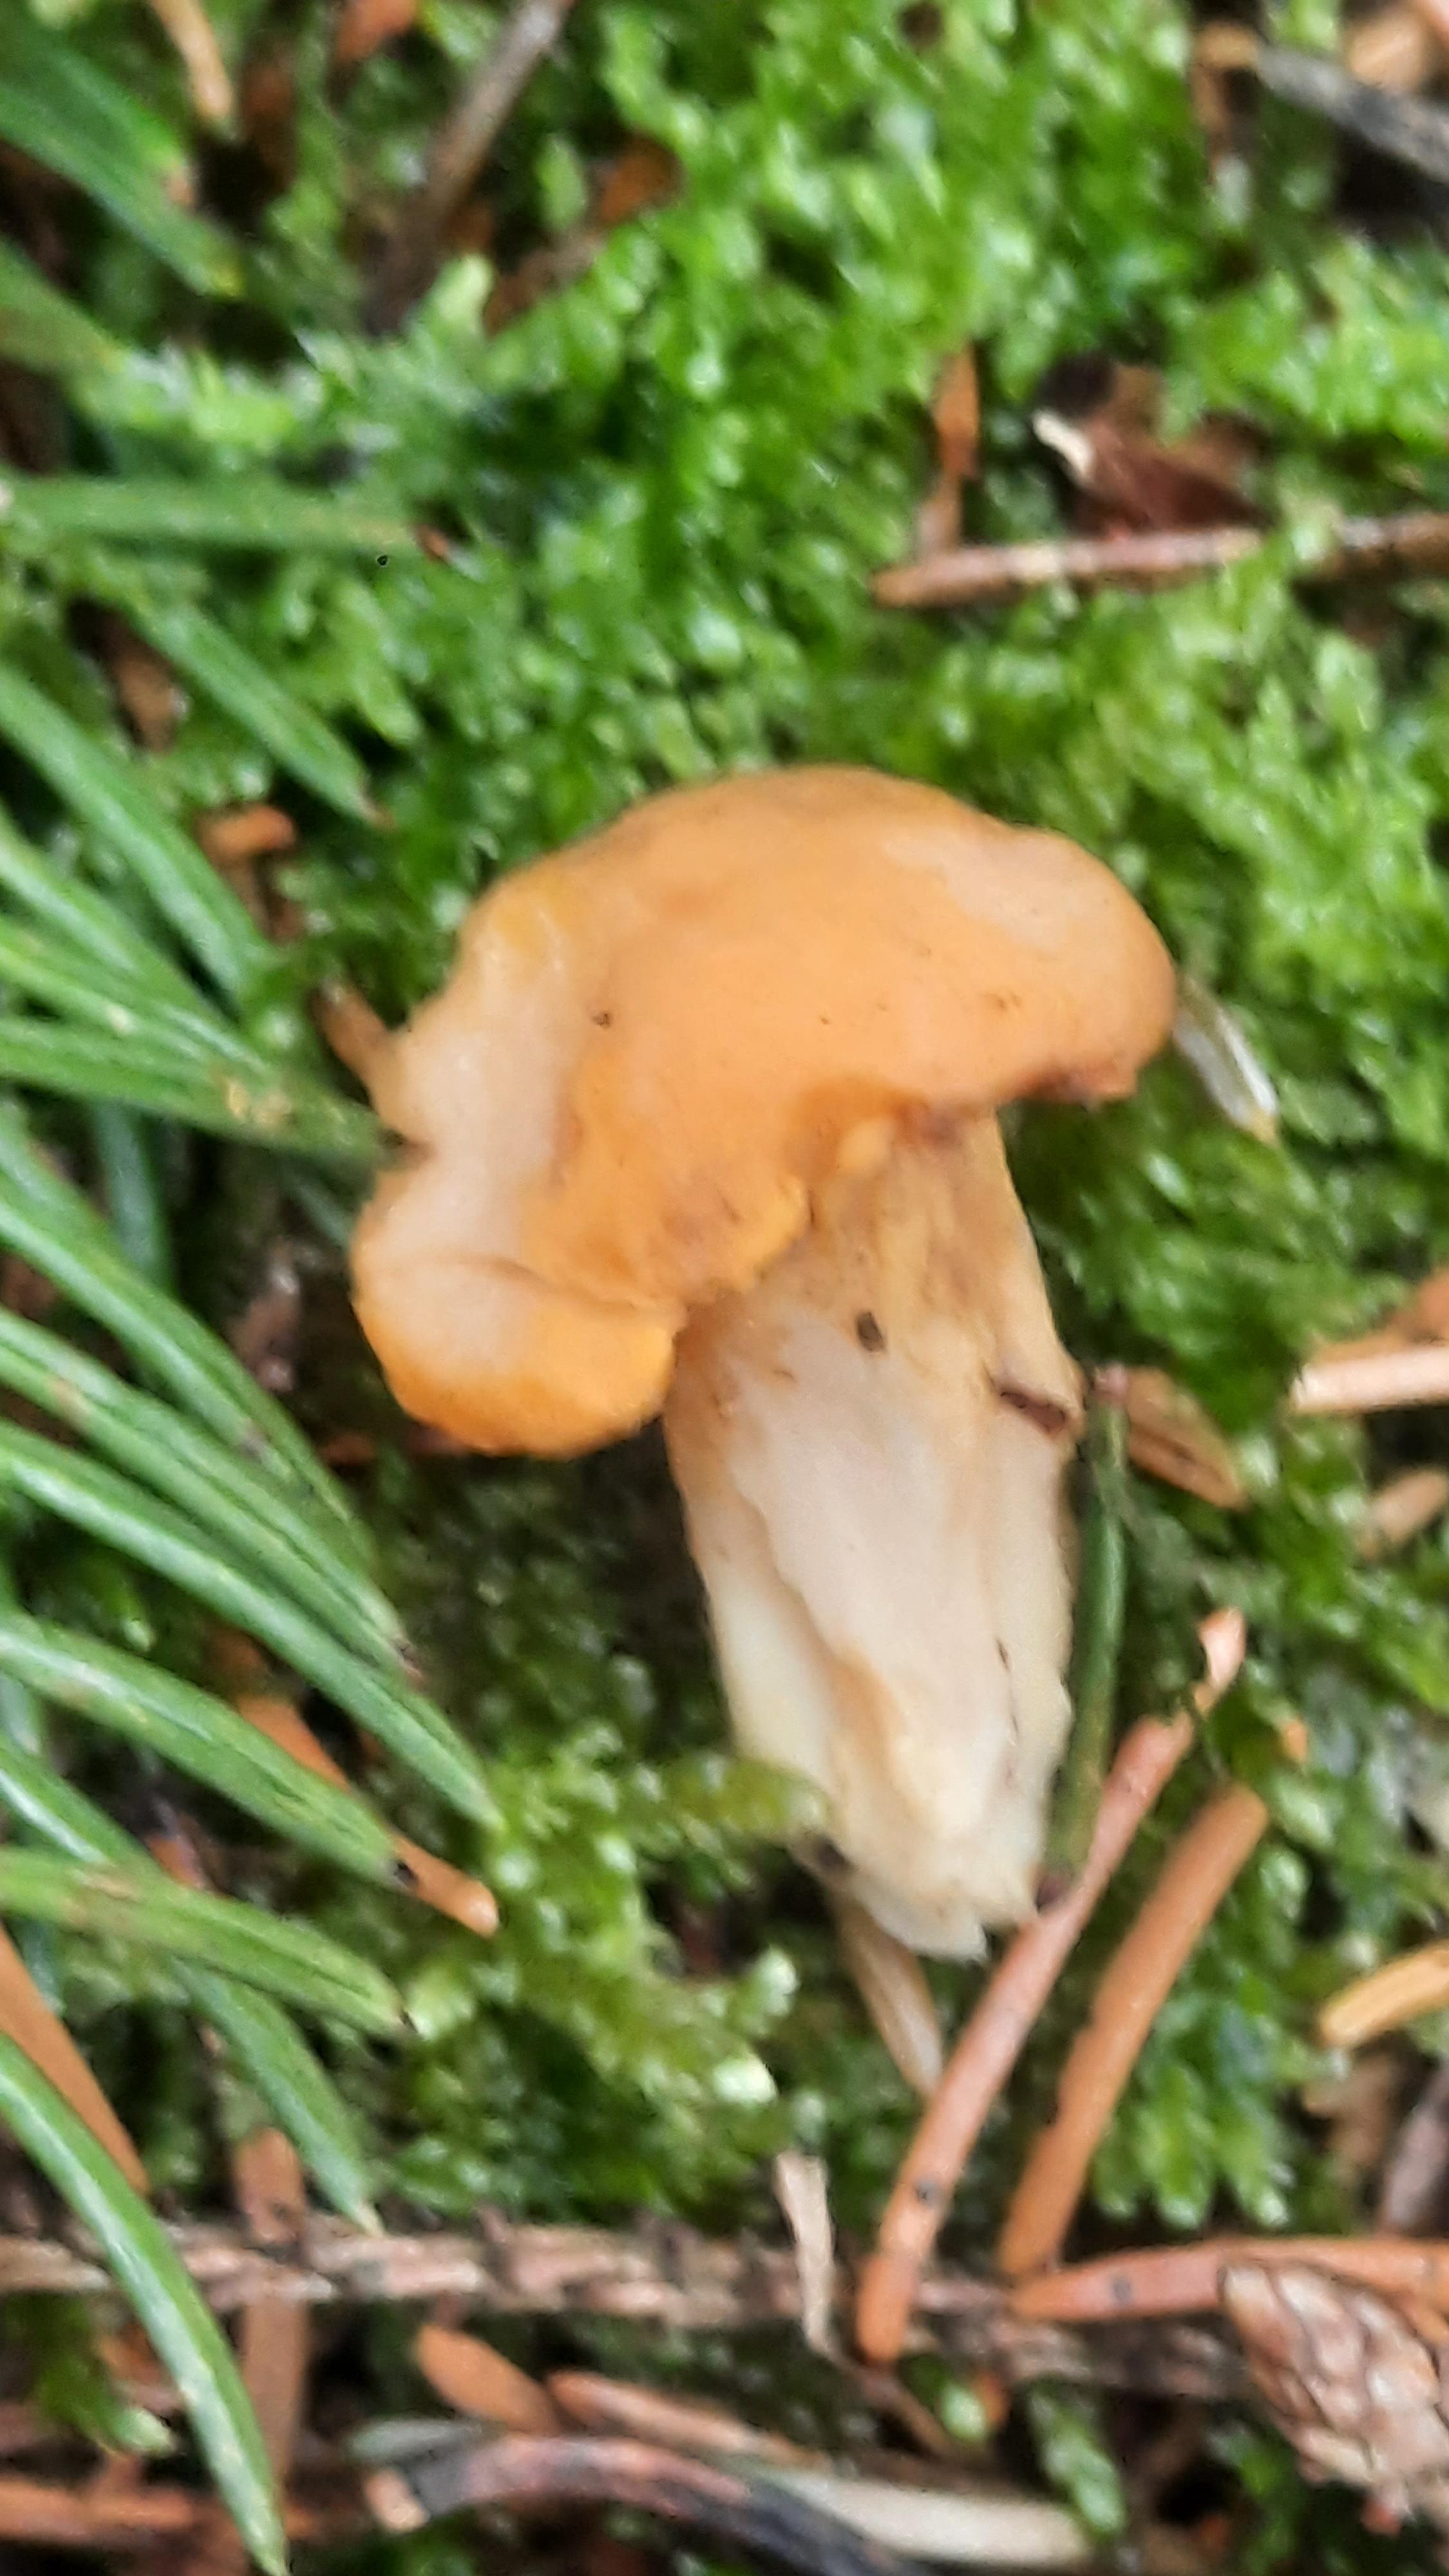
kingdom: Fungi
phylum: Basidiomycota
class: Agaricomycetes
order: Cantharellales
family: Hydnaceae
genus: Cantharellus
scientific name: Cantharellus cibarius
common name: almindelig kantarel
